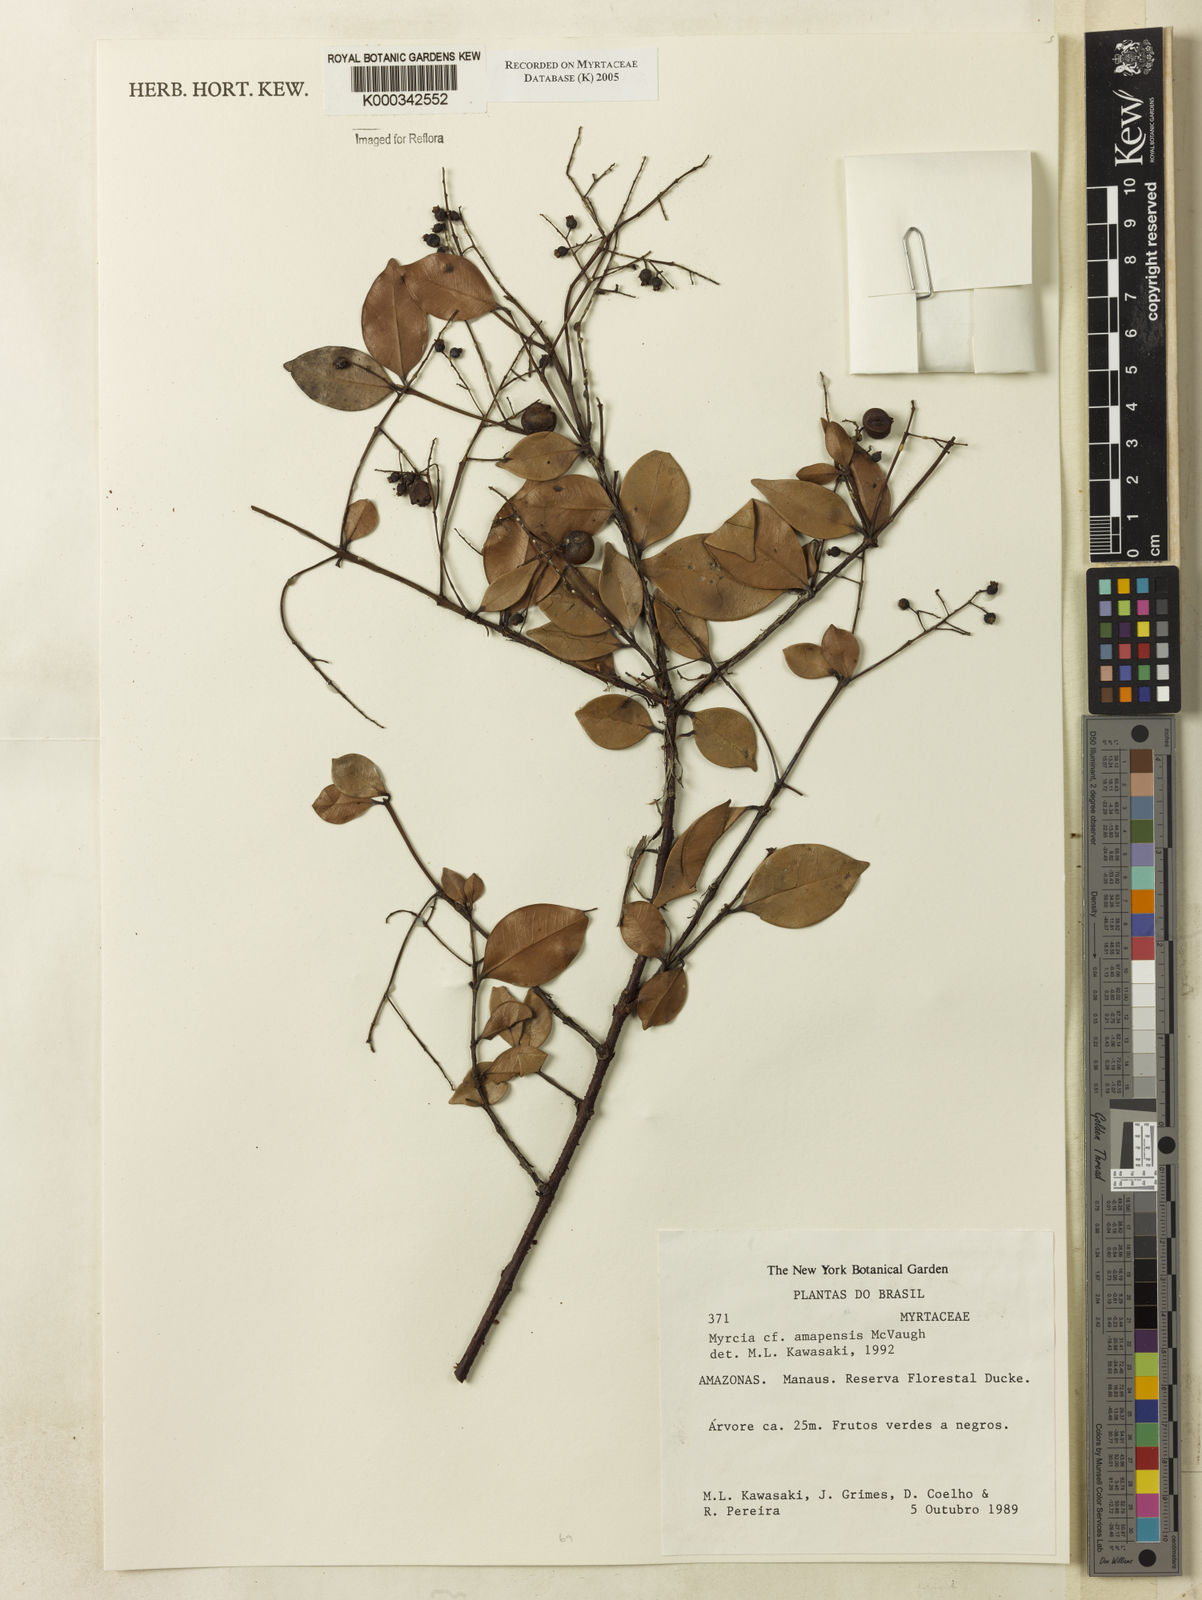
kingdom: Plantae
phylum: Tracheophyta
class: Magnoliopsida
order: Myrtales
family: Myrtaceae
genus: Myrcia
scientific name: Myrcia aliena
